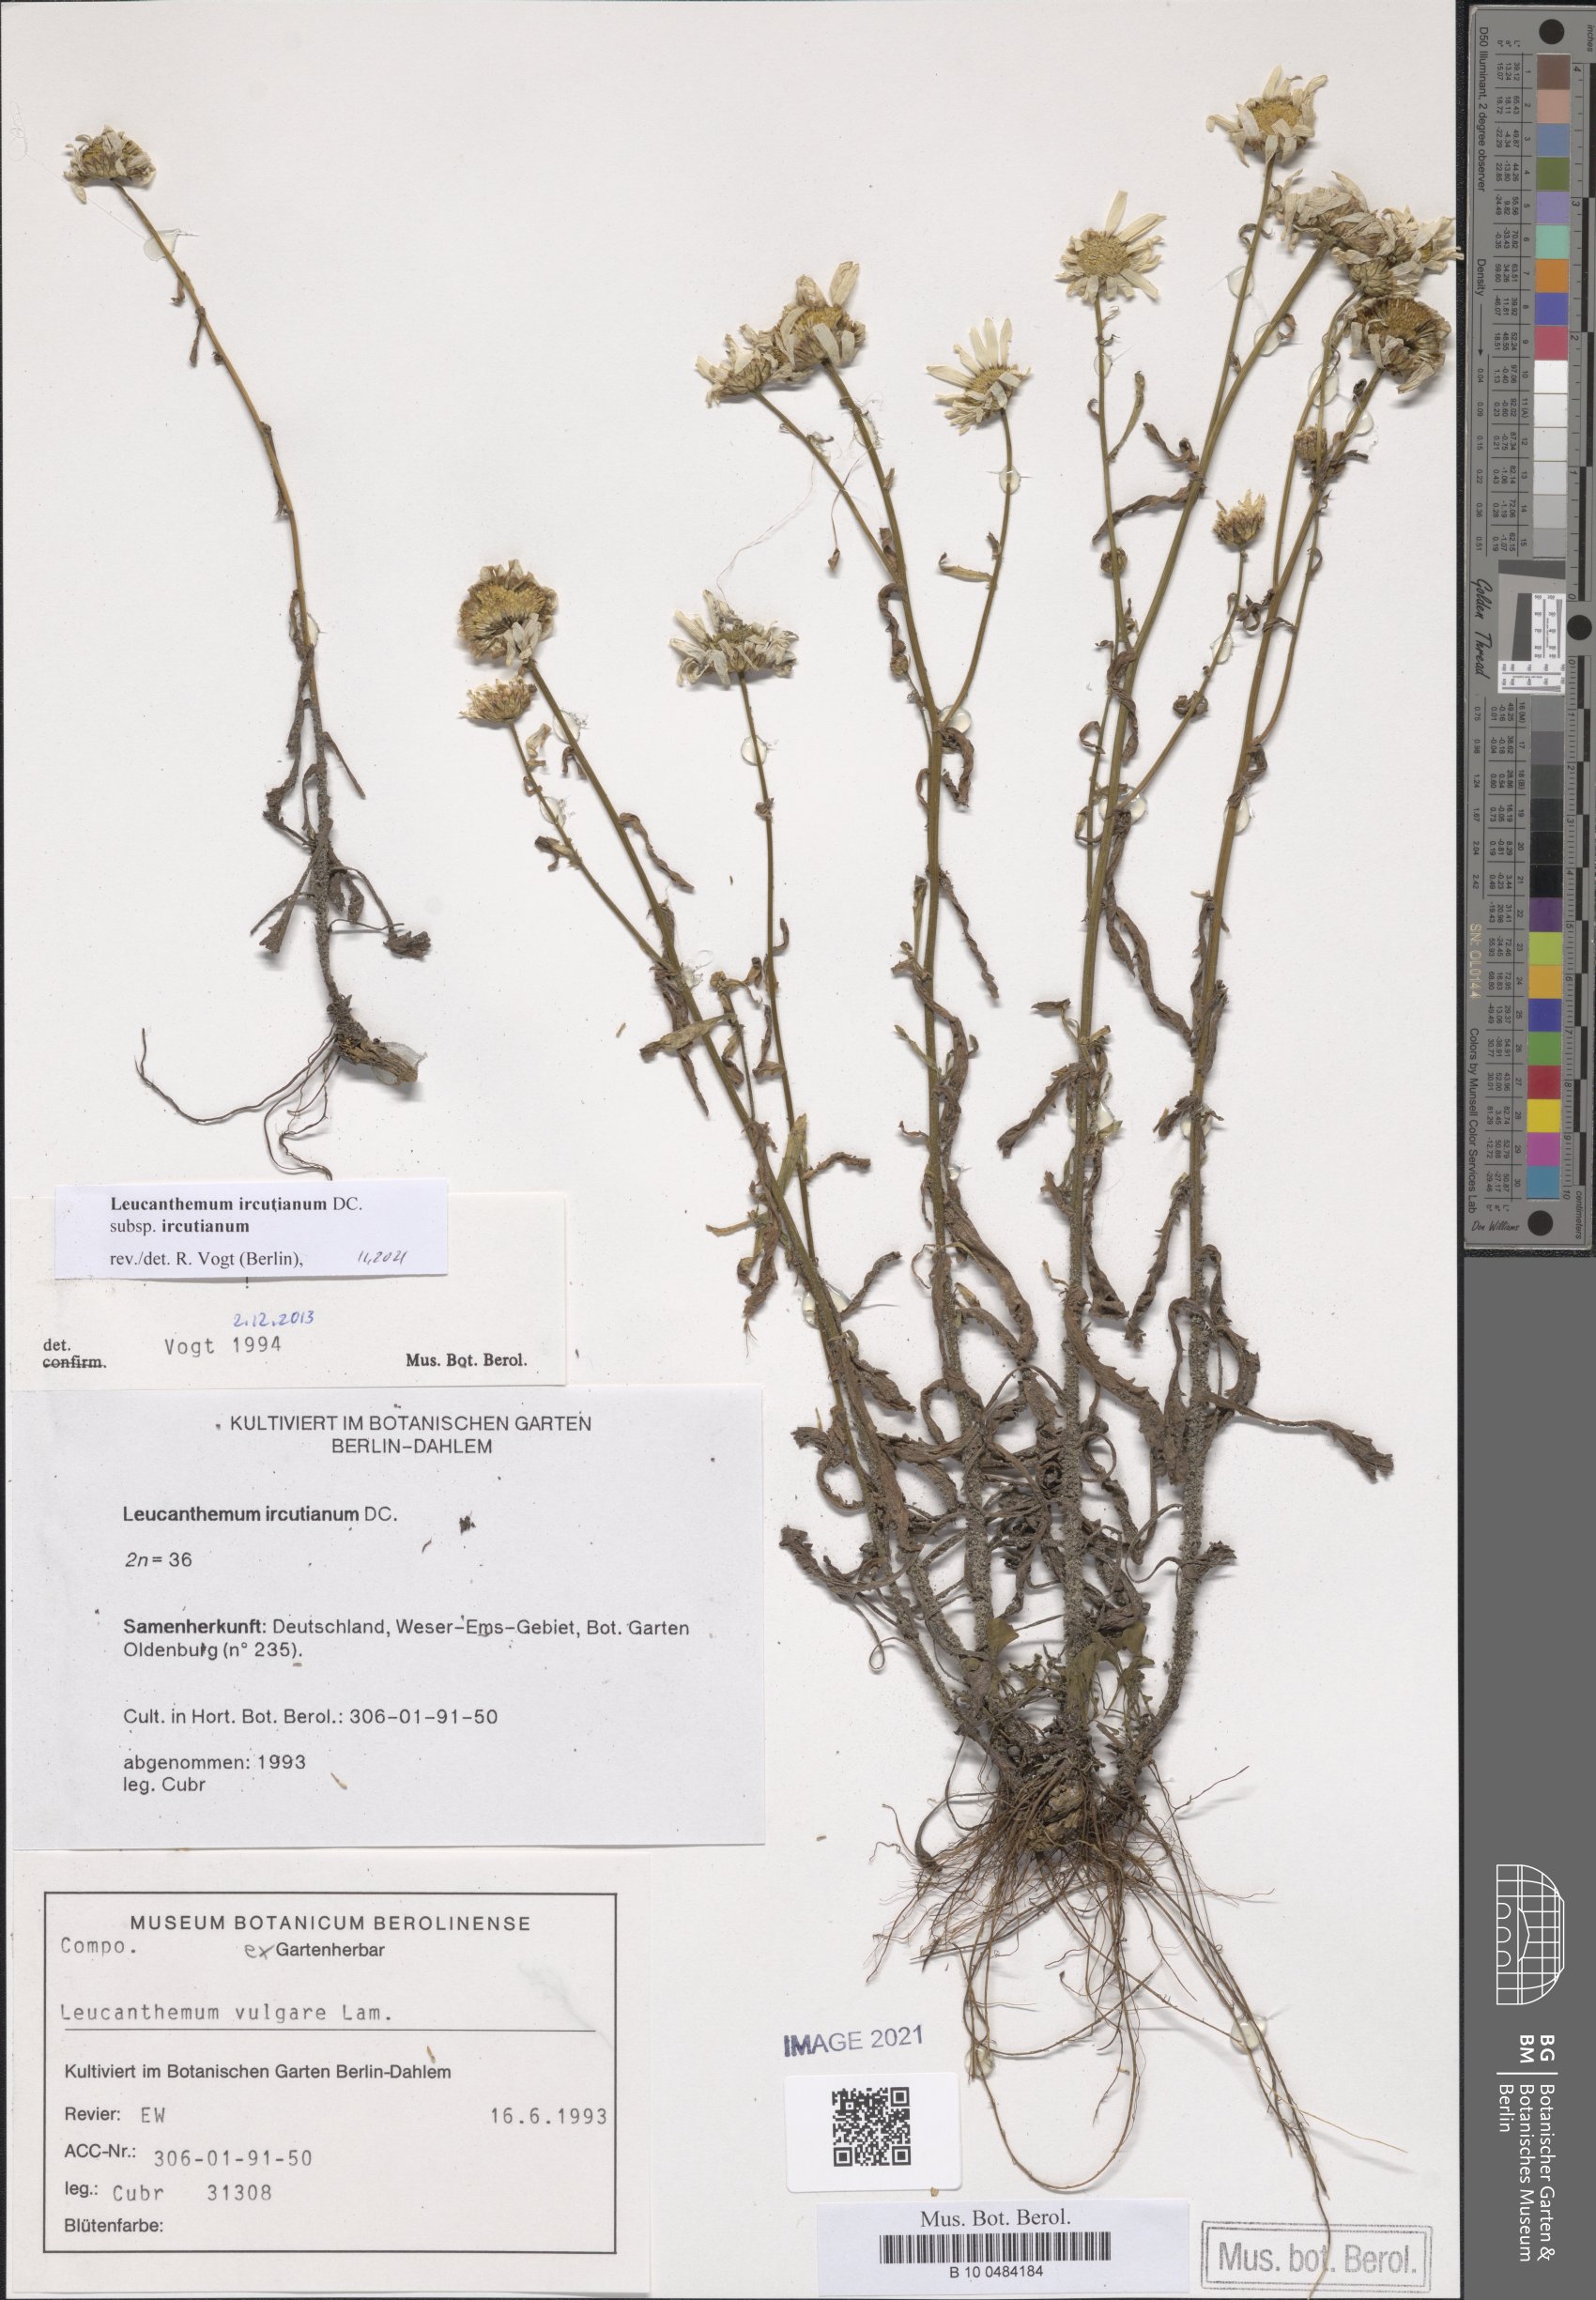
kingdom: Plantae
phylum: Tracheophyta
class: Magnoliopsida
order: Asterales
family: Asteraceae
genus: Leucanthemum
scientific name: Leucanthemum ircutianum
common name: Daisy
